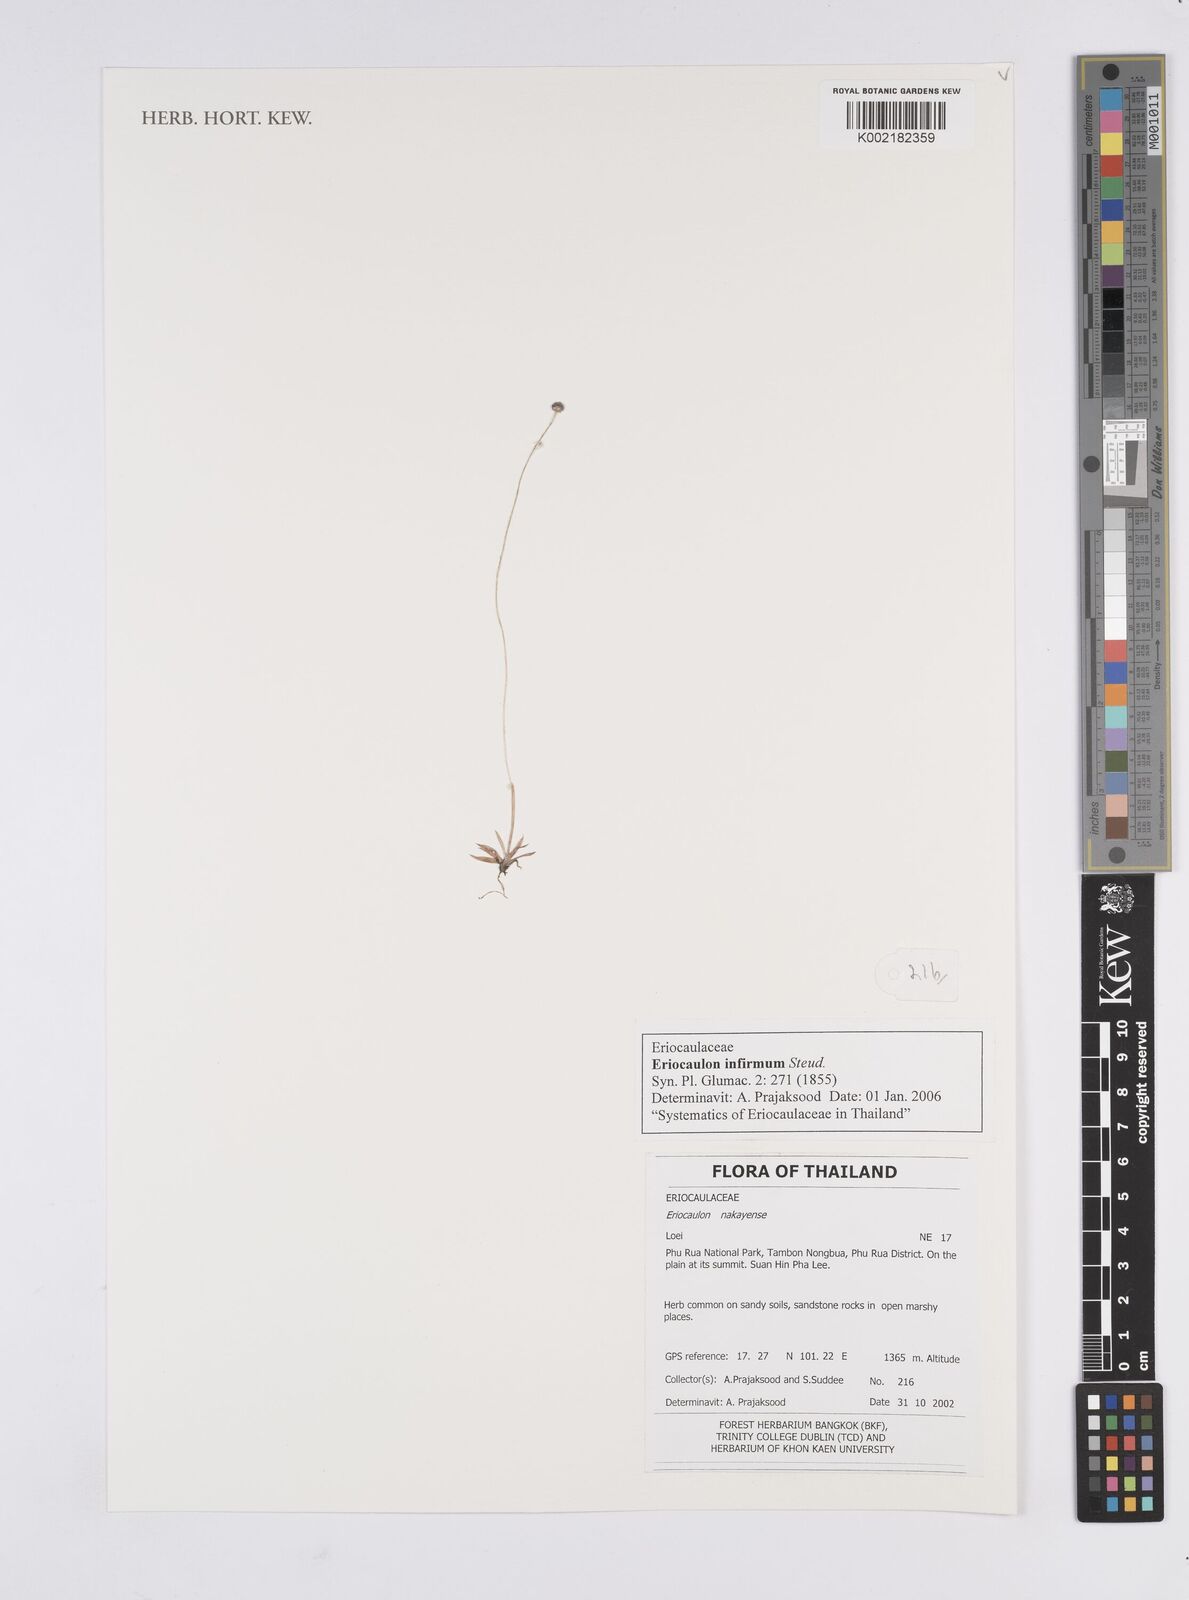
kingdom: Plantae
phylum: Tracheophyta
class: Liliopsida
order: Poales
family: Eriocaulaceae
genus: Eriocaulon
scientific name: Eriocaulon infirmum
